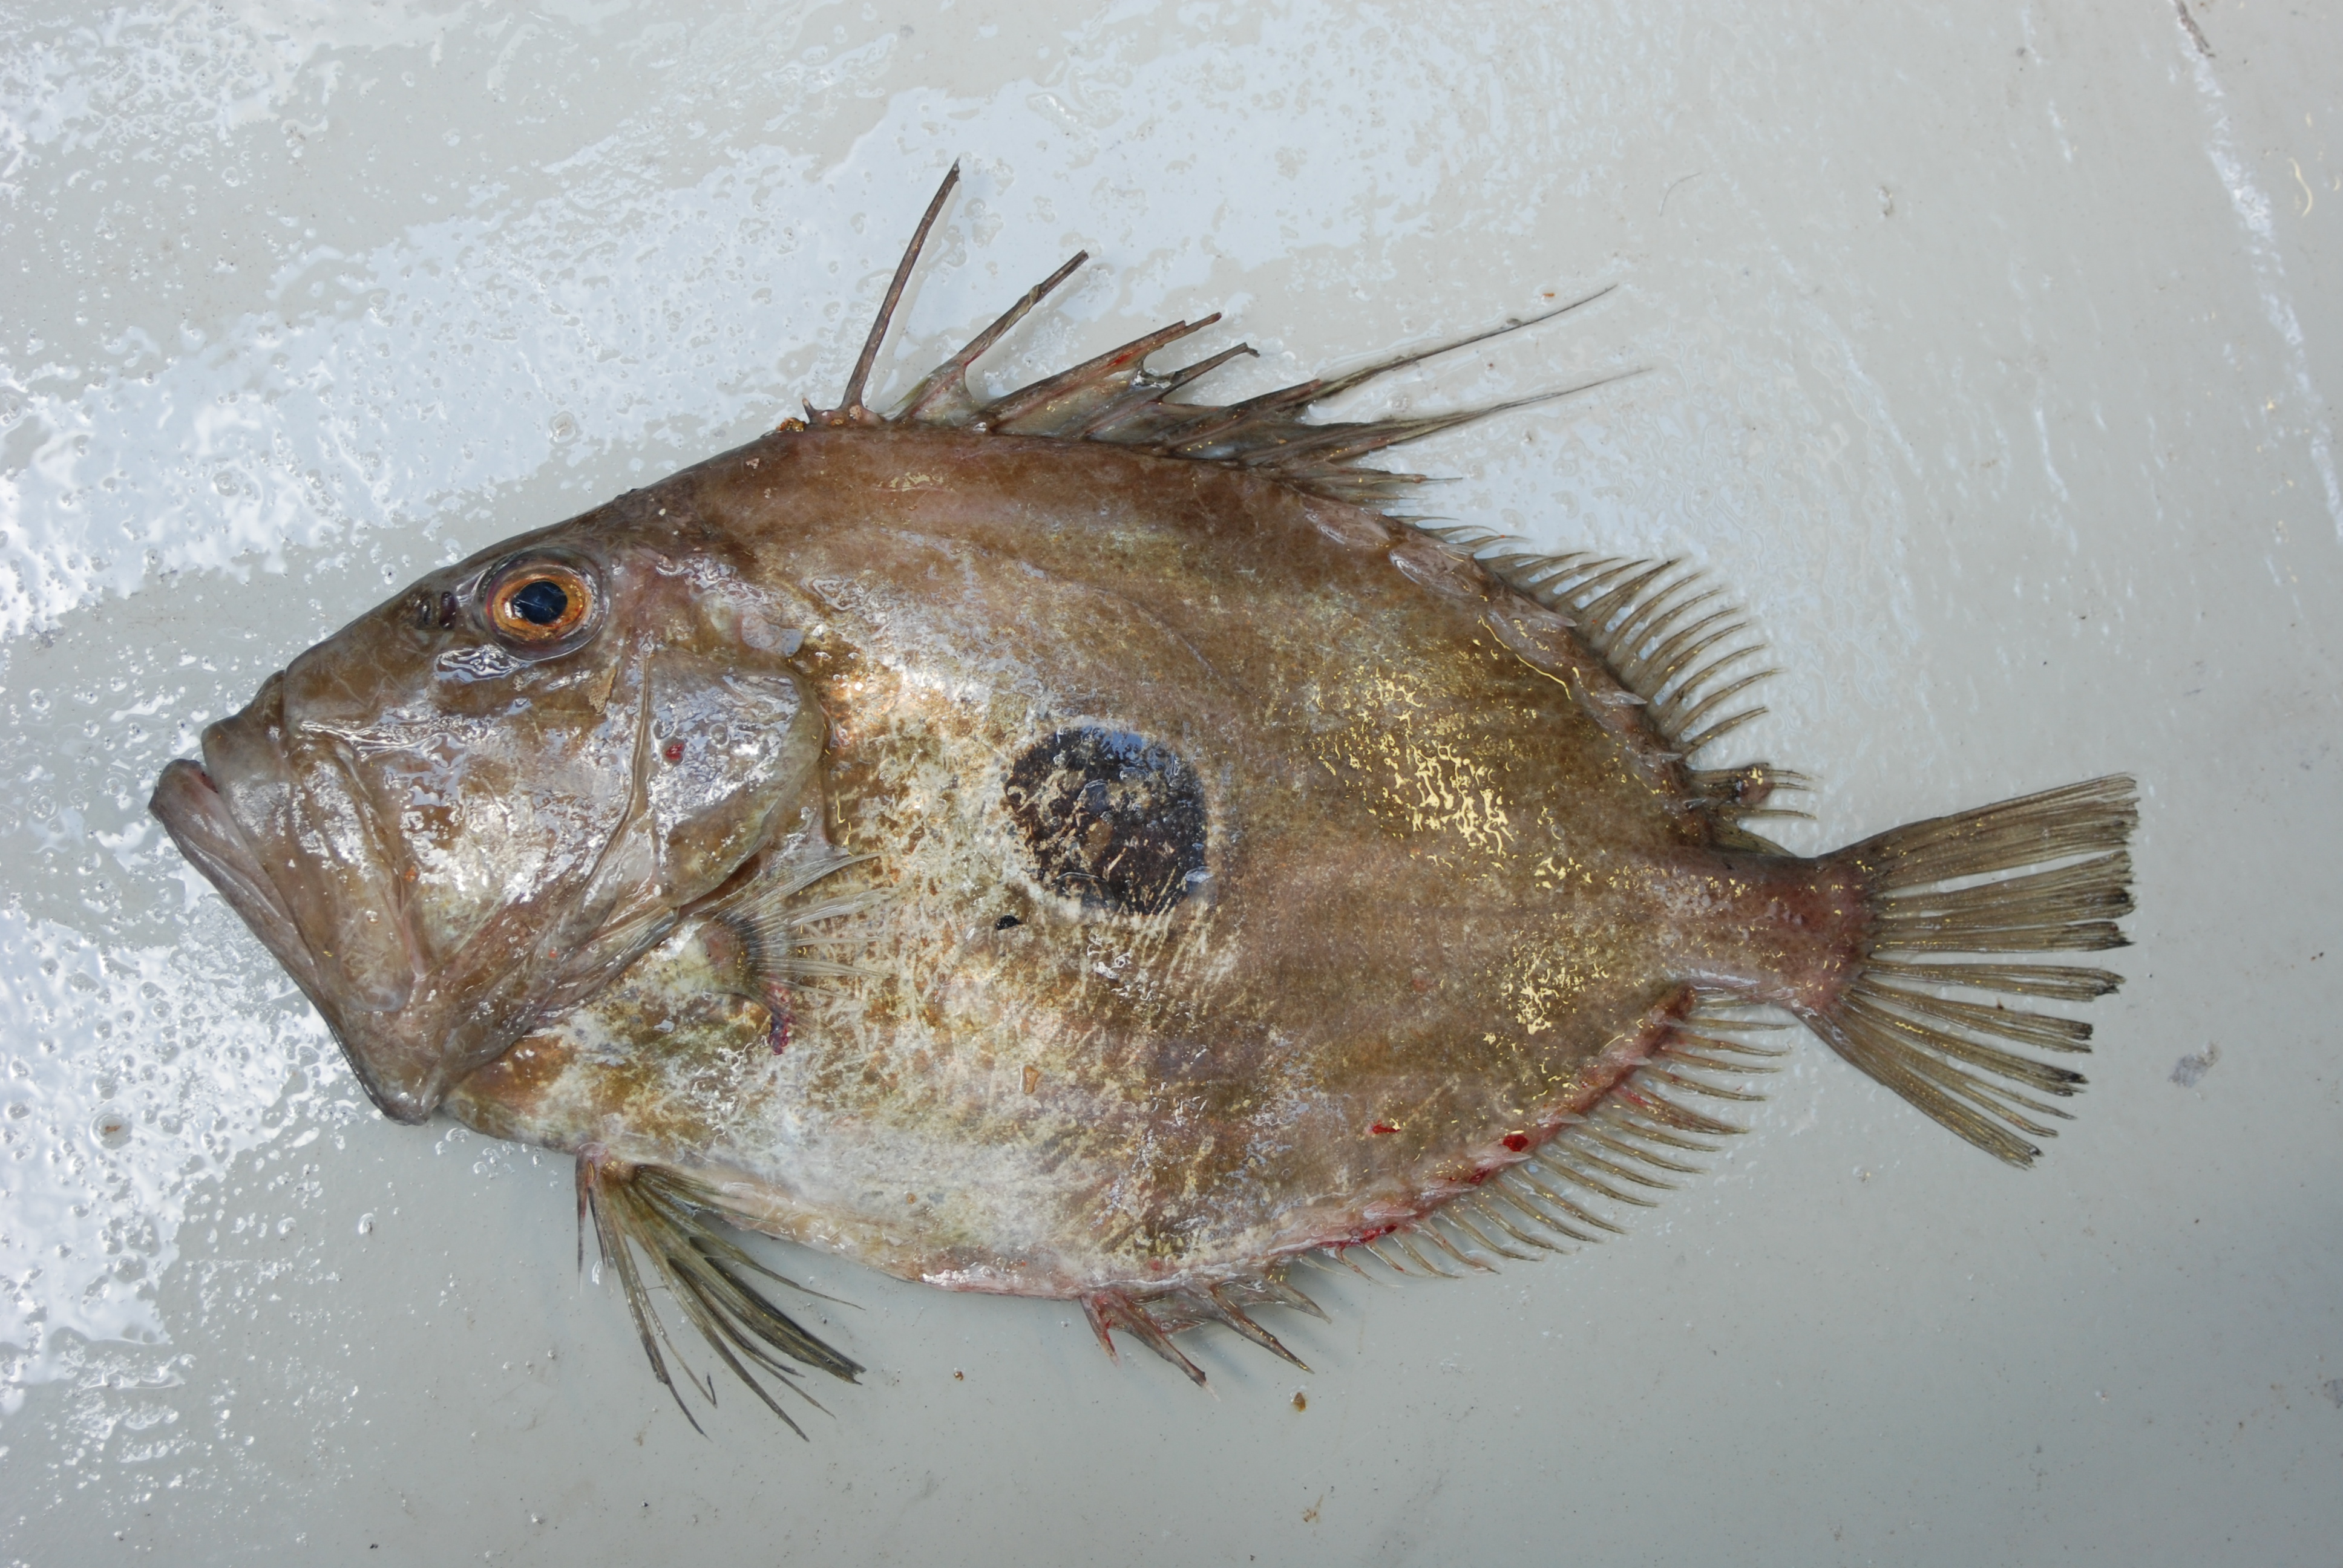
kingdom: Animalia
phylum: Chordata
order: Zeiformes
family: Zeidae
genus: Zeus
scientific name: Zeus faber
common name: John dory
